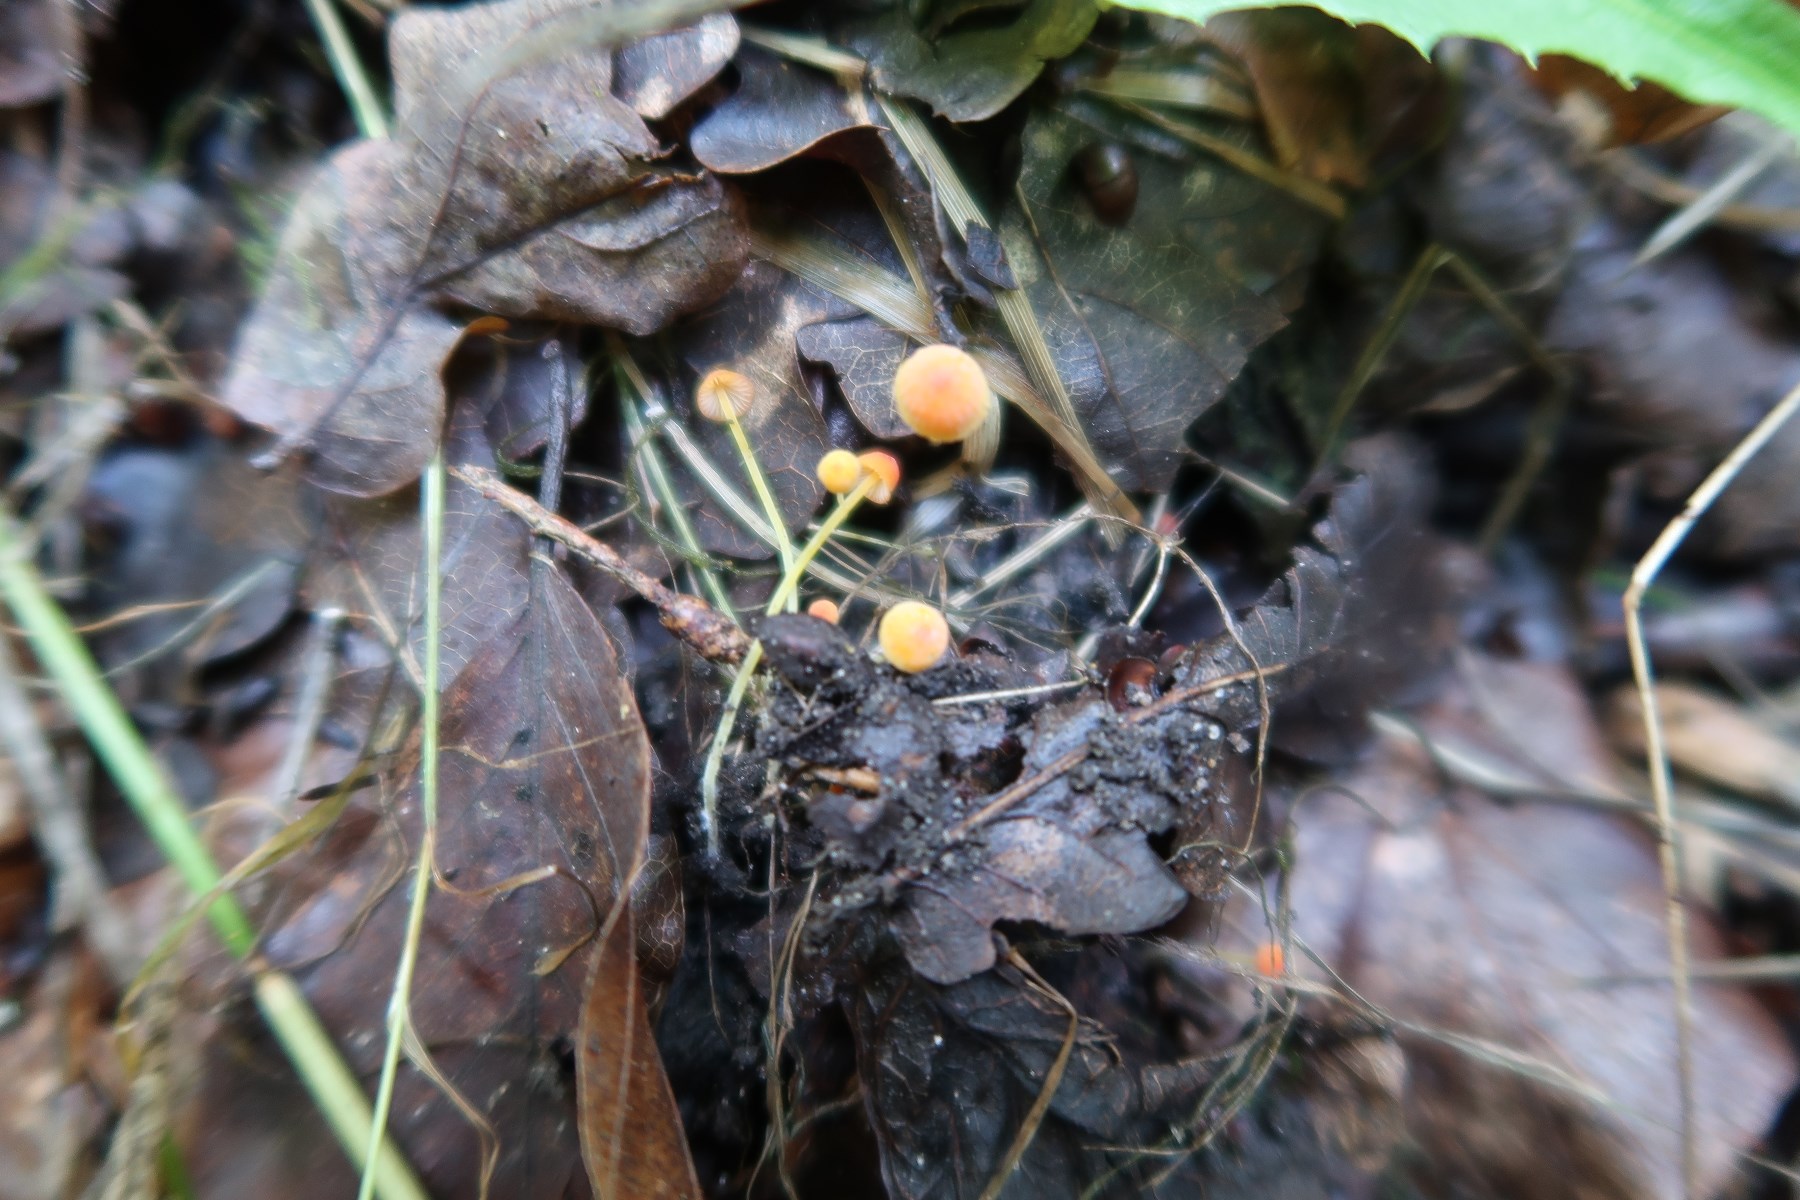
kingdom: Fungi
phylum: Basidiomycota
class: Agaricomycetes
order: Agaricales
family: Mycenaceae
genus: Mycena
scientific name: Mycena acicula
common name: orange huesvamp
